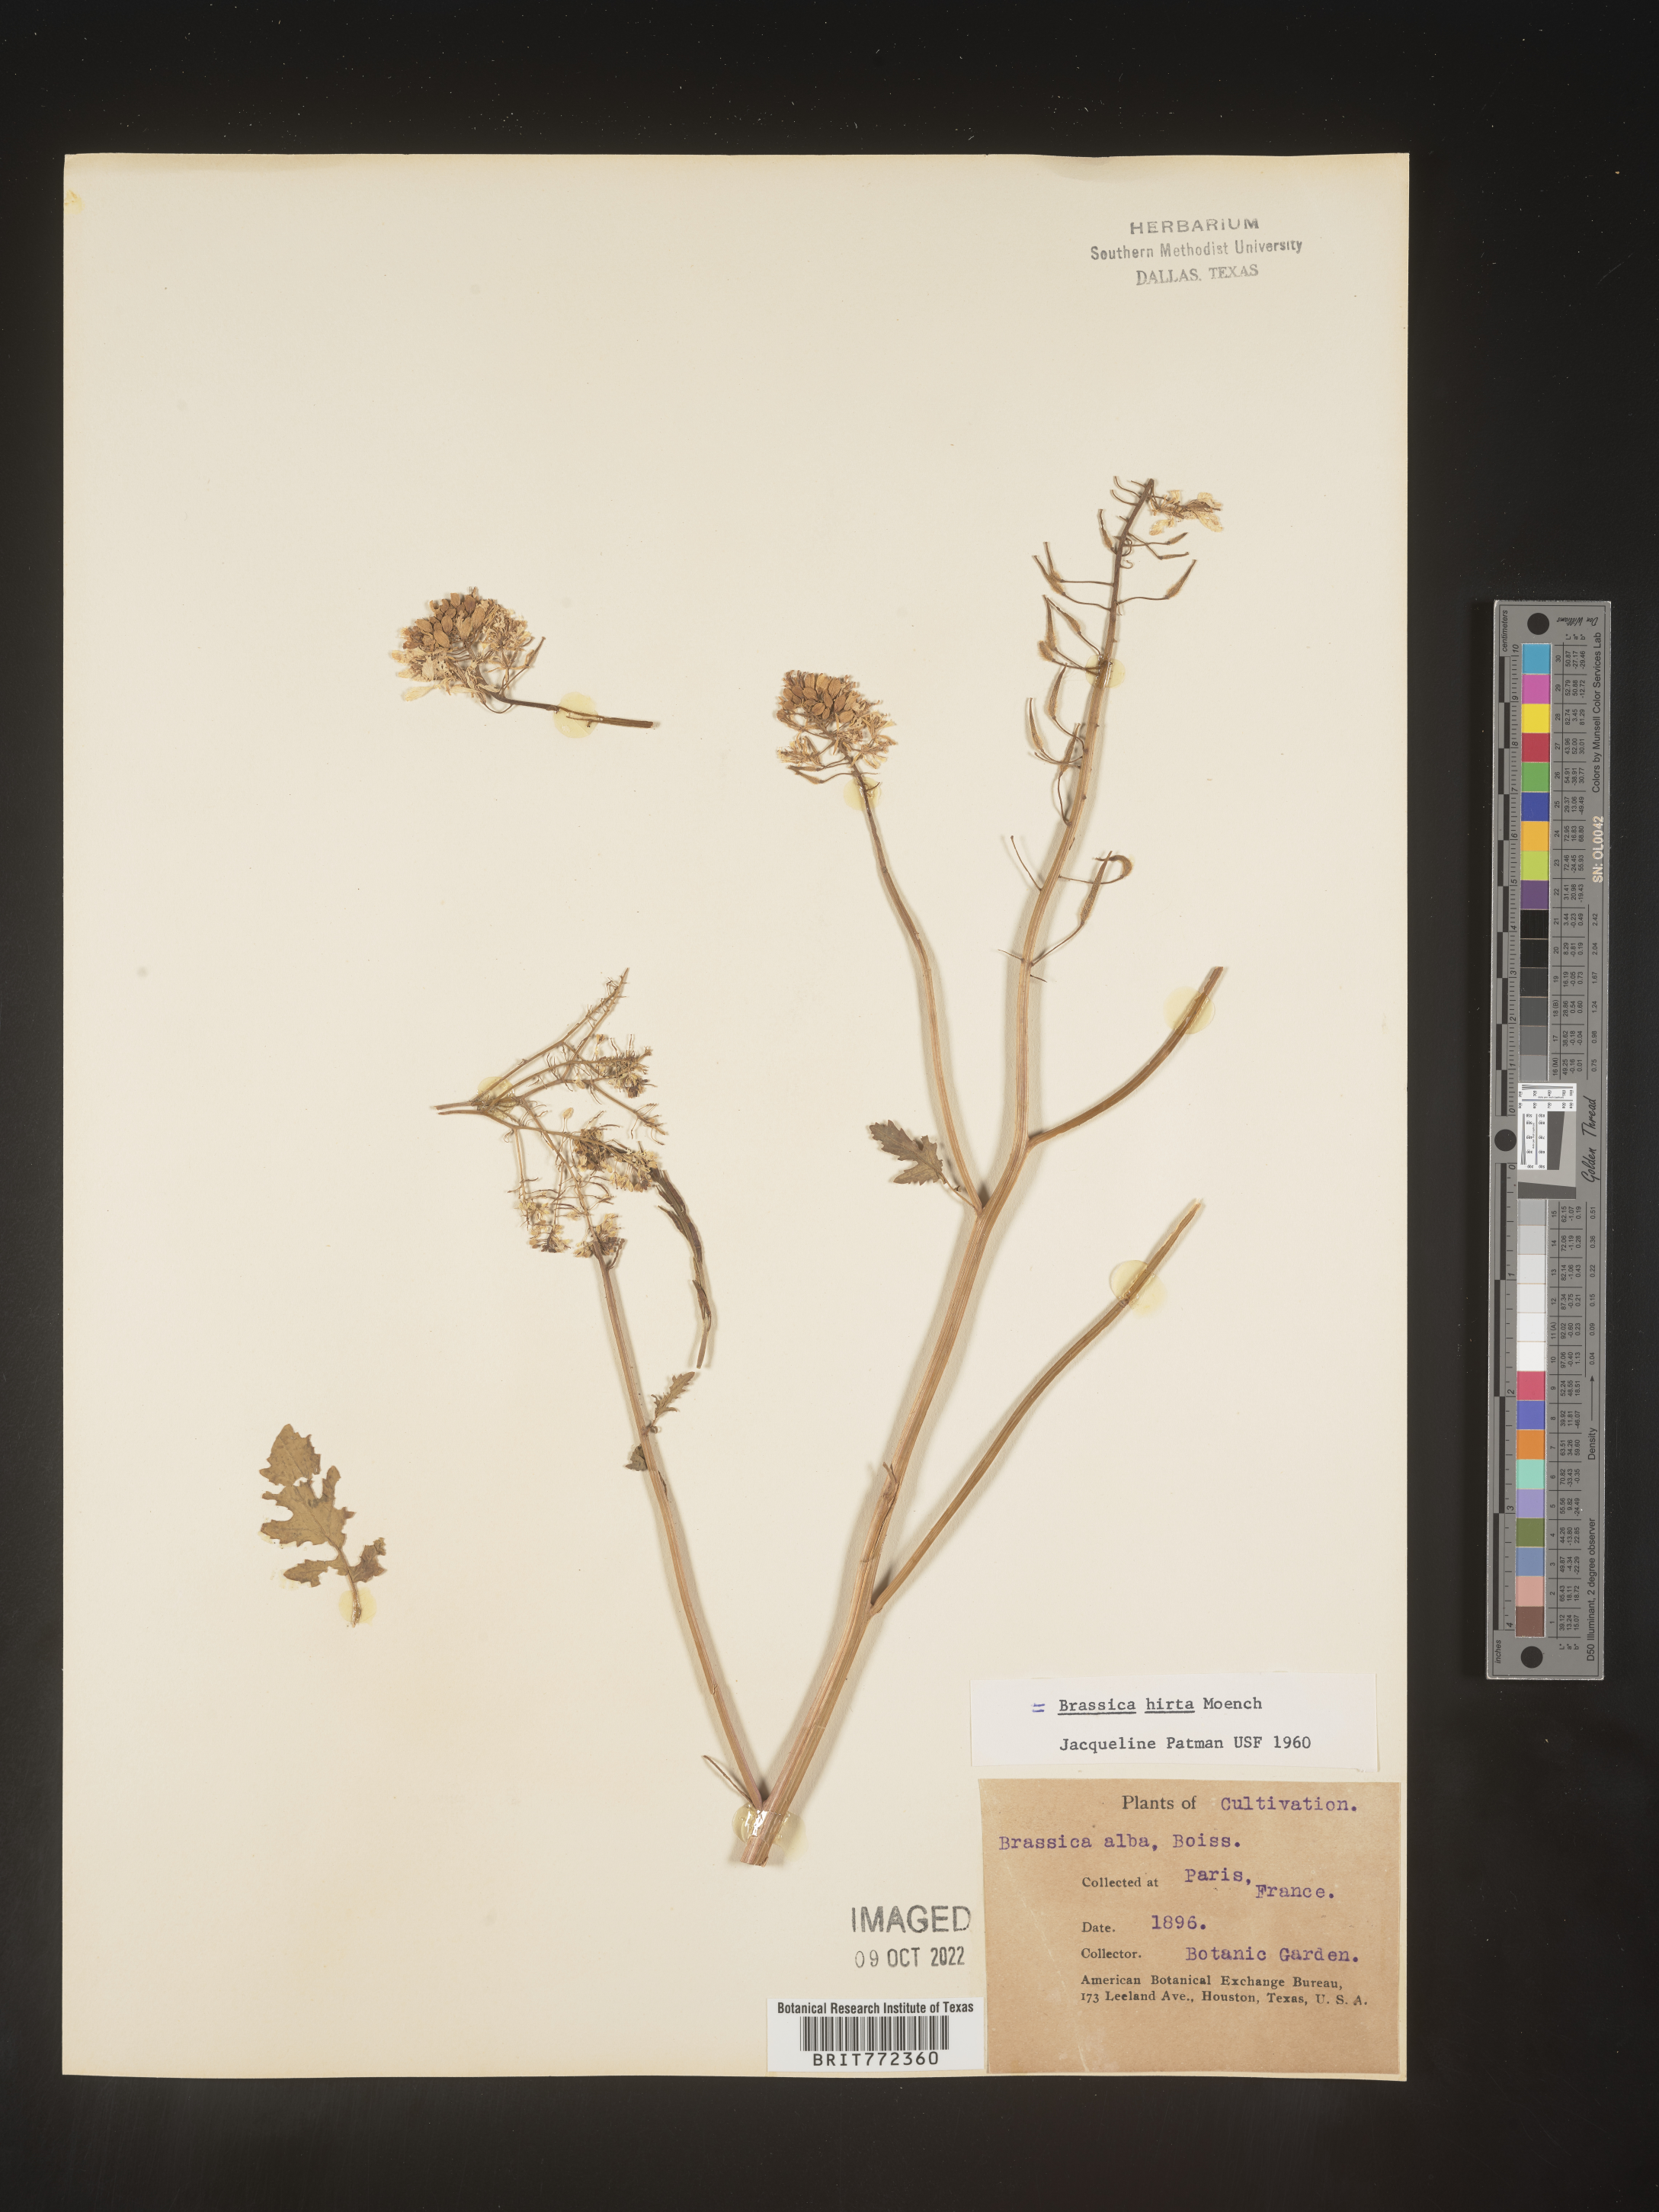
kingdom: Plantae
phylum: Tracheophyta
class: Magnoliopsida
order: Brassicales
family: Brassicaceae
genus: Brassica
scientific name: Brassica
